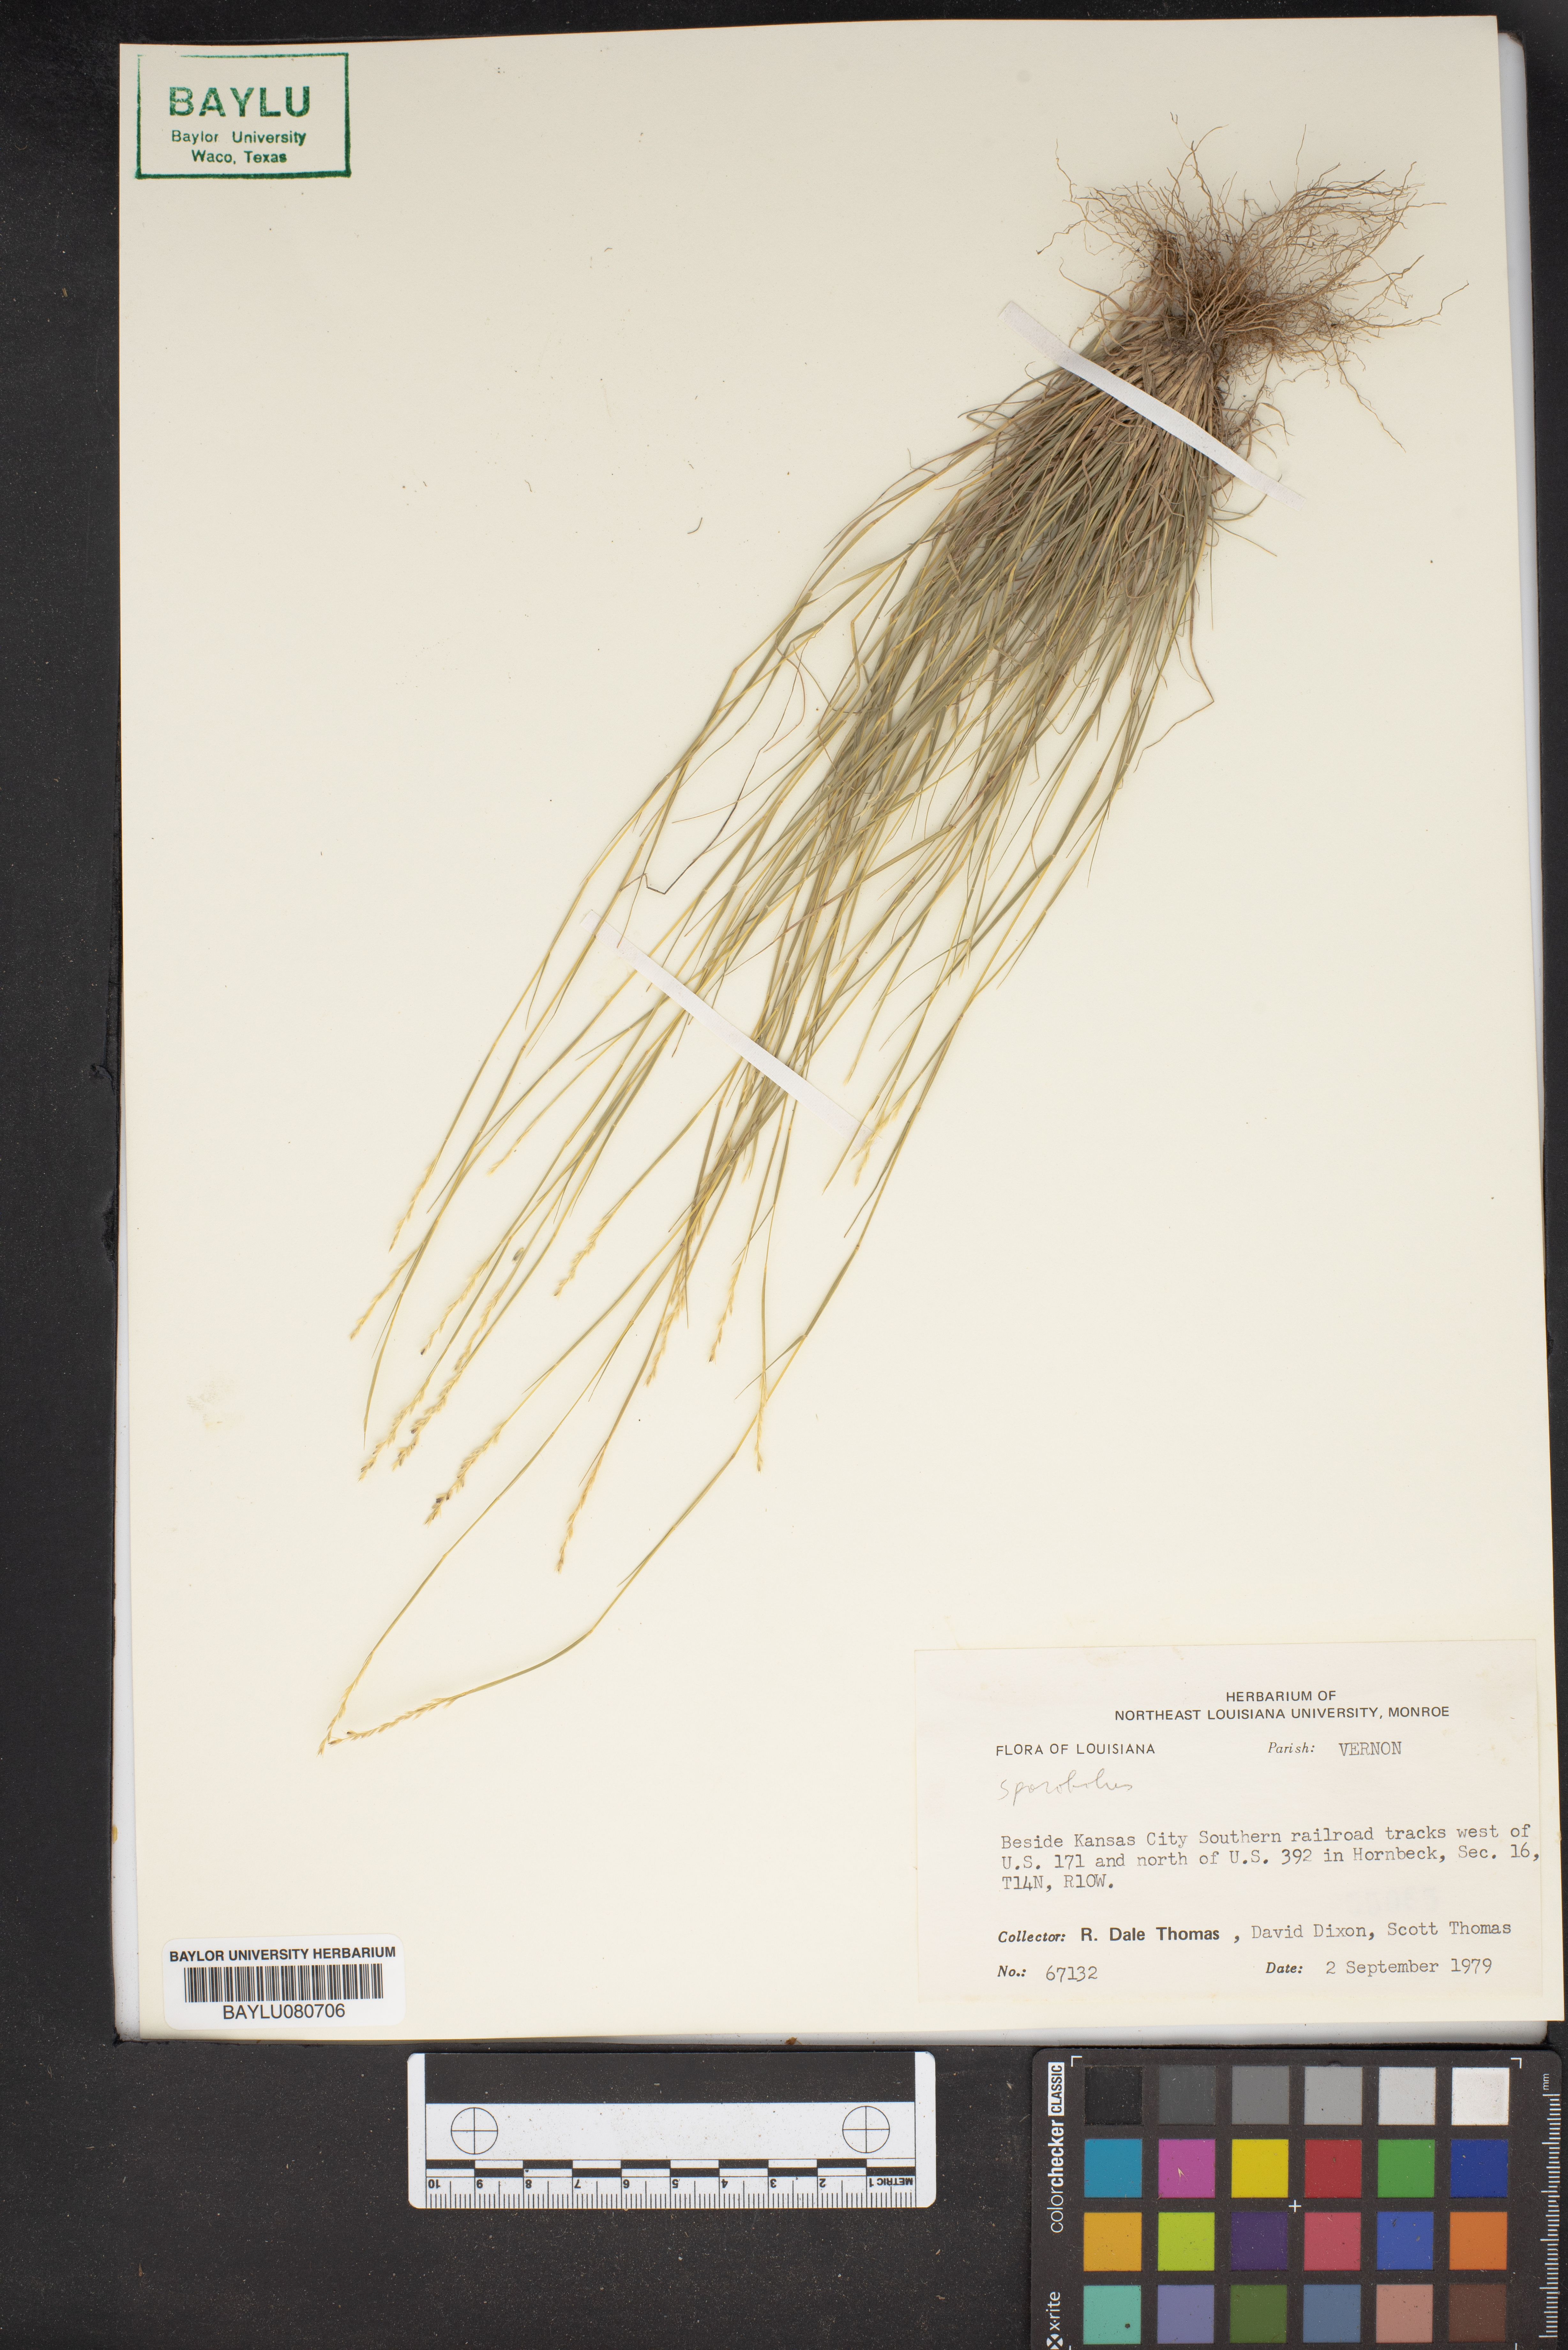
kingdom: Plantae
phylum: Tracheophyta
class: Liliopsida
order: Poales
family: Poaceae
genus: Sporobolus
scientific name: Sporobolus
